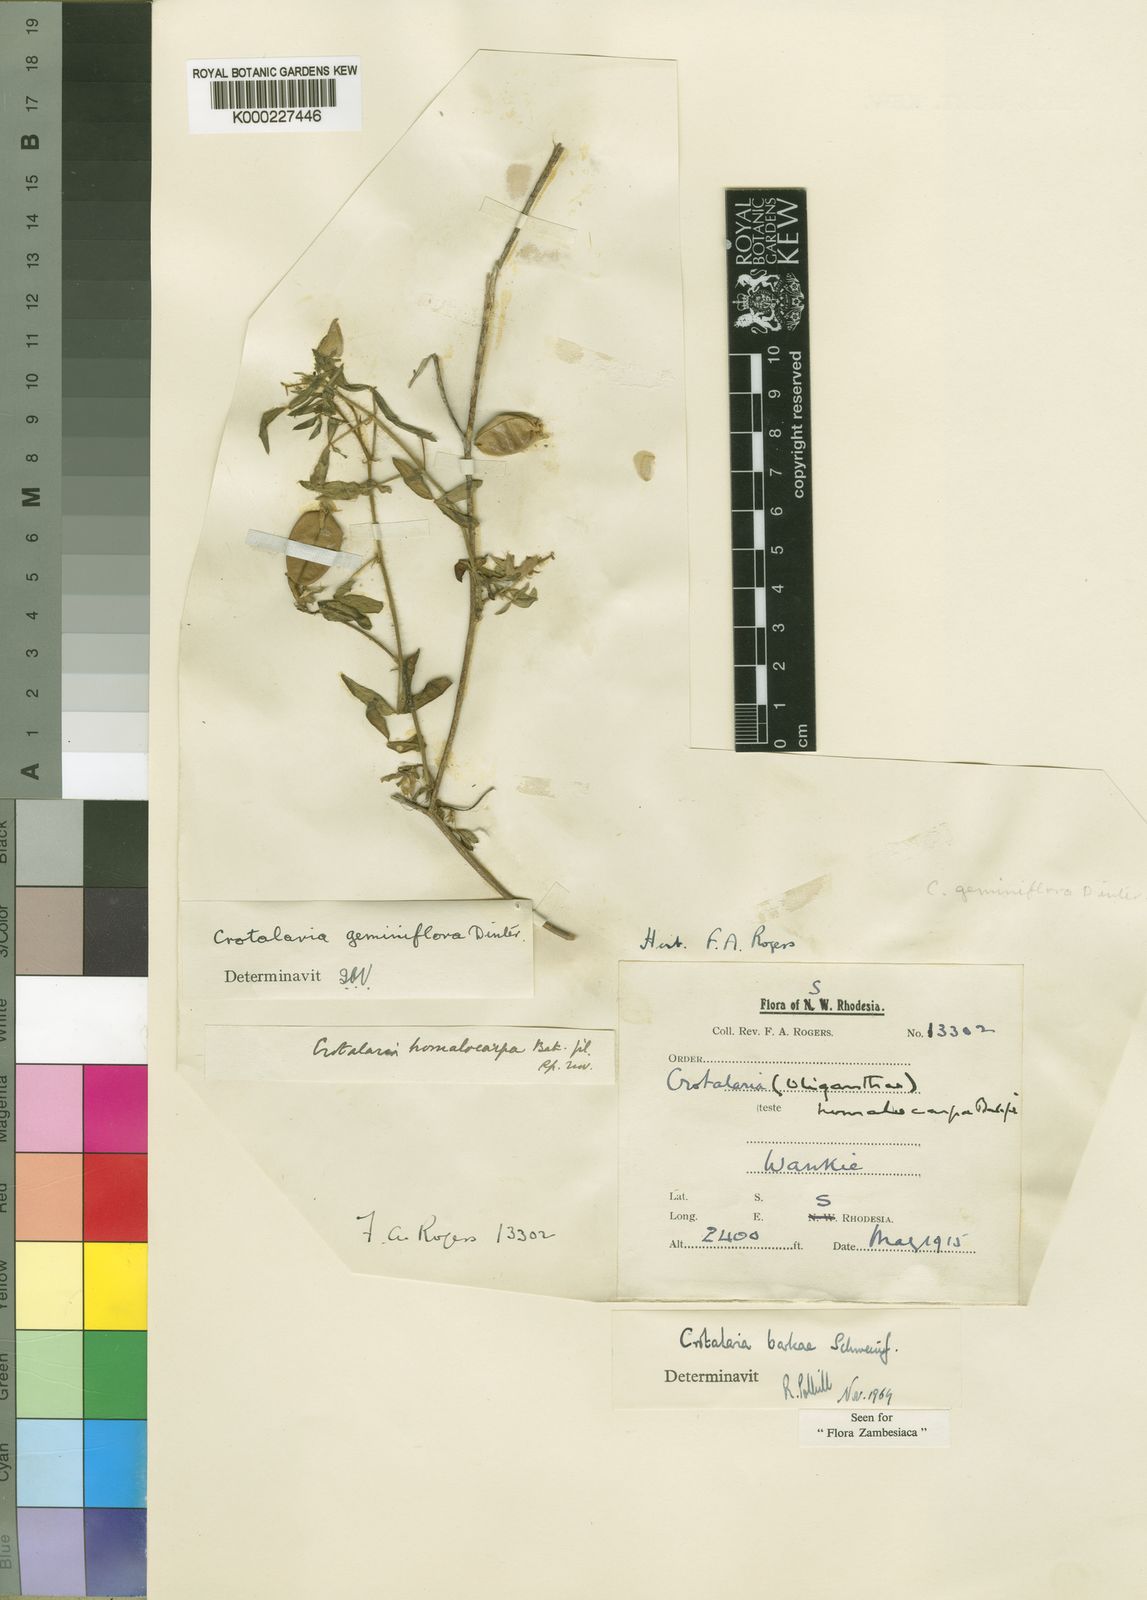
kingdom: Plantae
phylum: Tracheophyta
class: Magnoliopsida
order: Fabales
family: Fabaceae
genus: Crotalaria
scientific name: Crotalaria barkae
